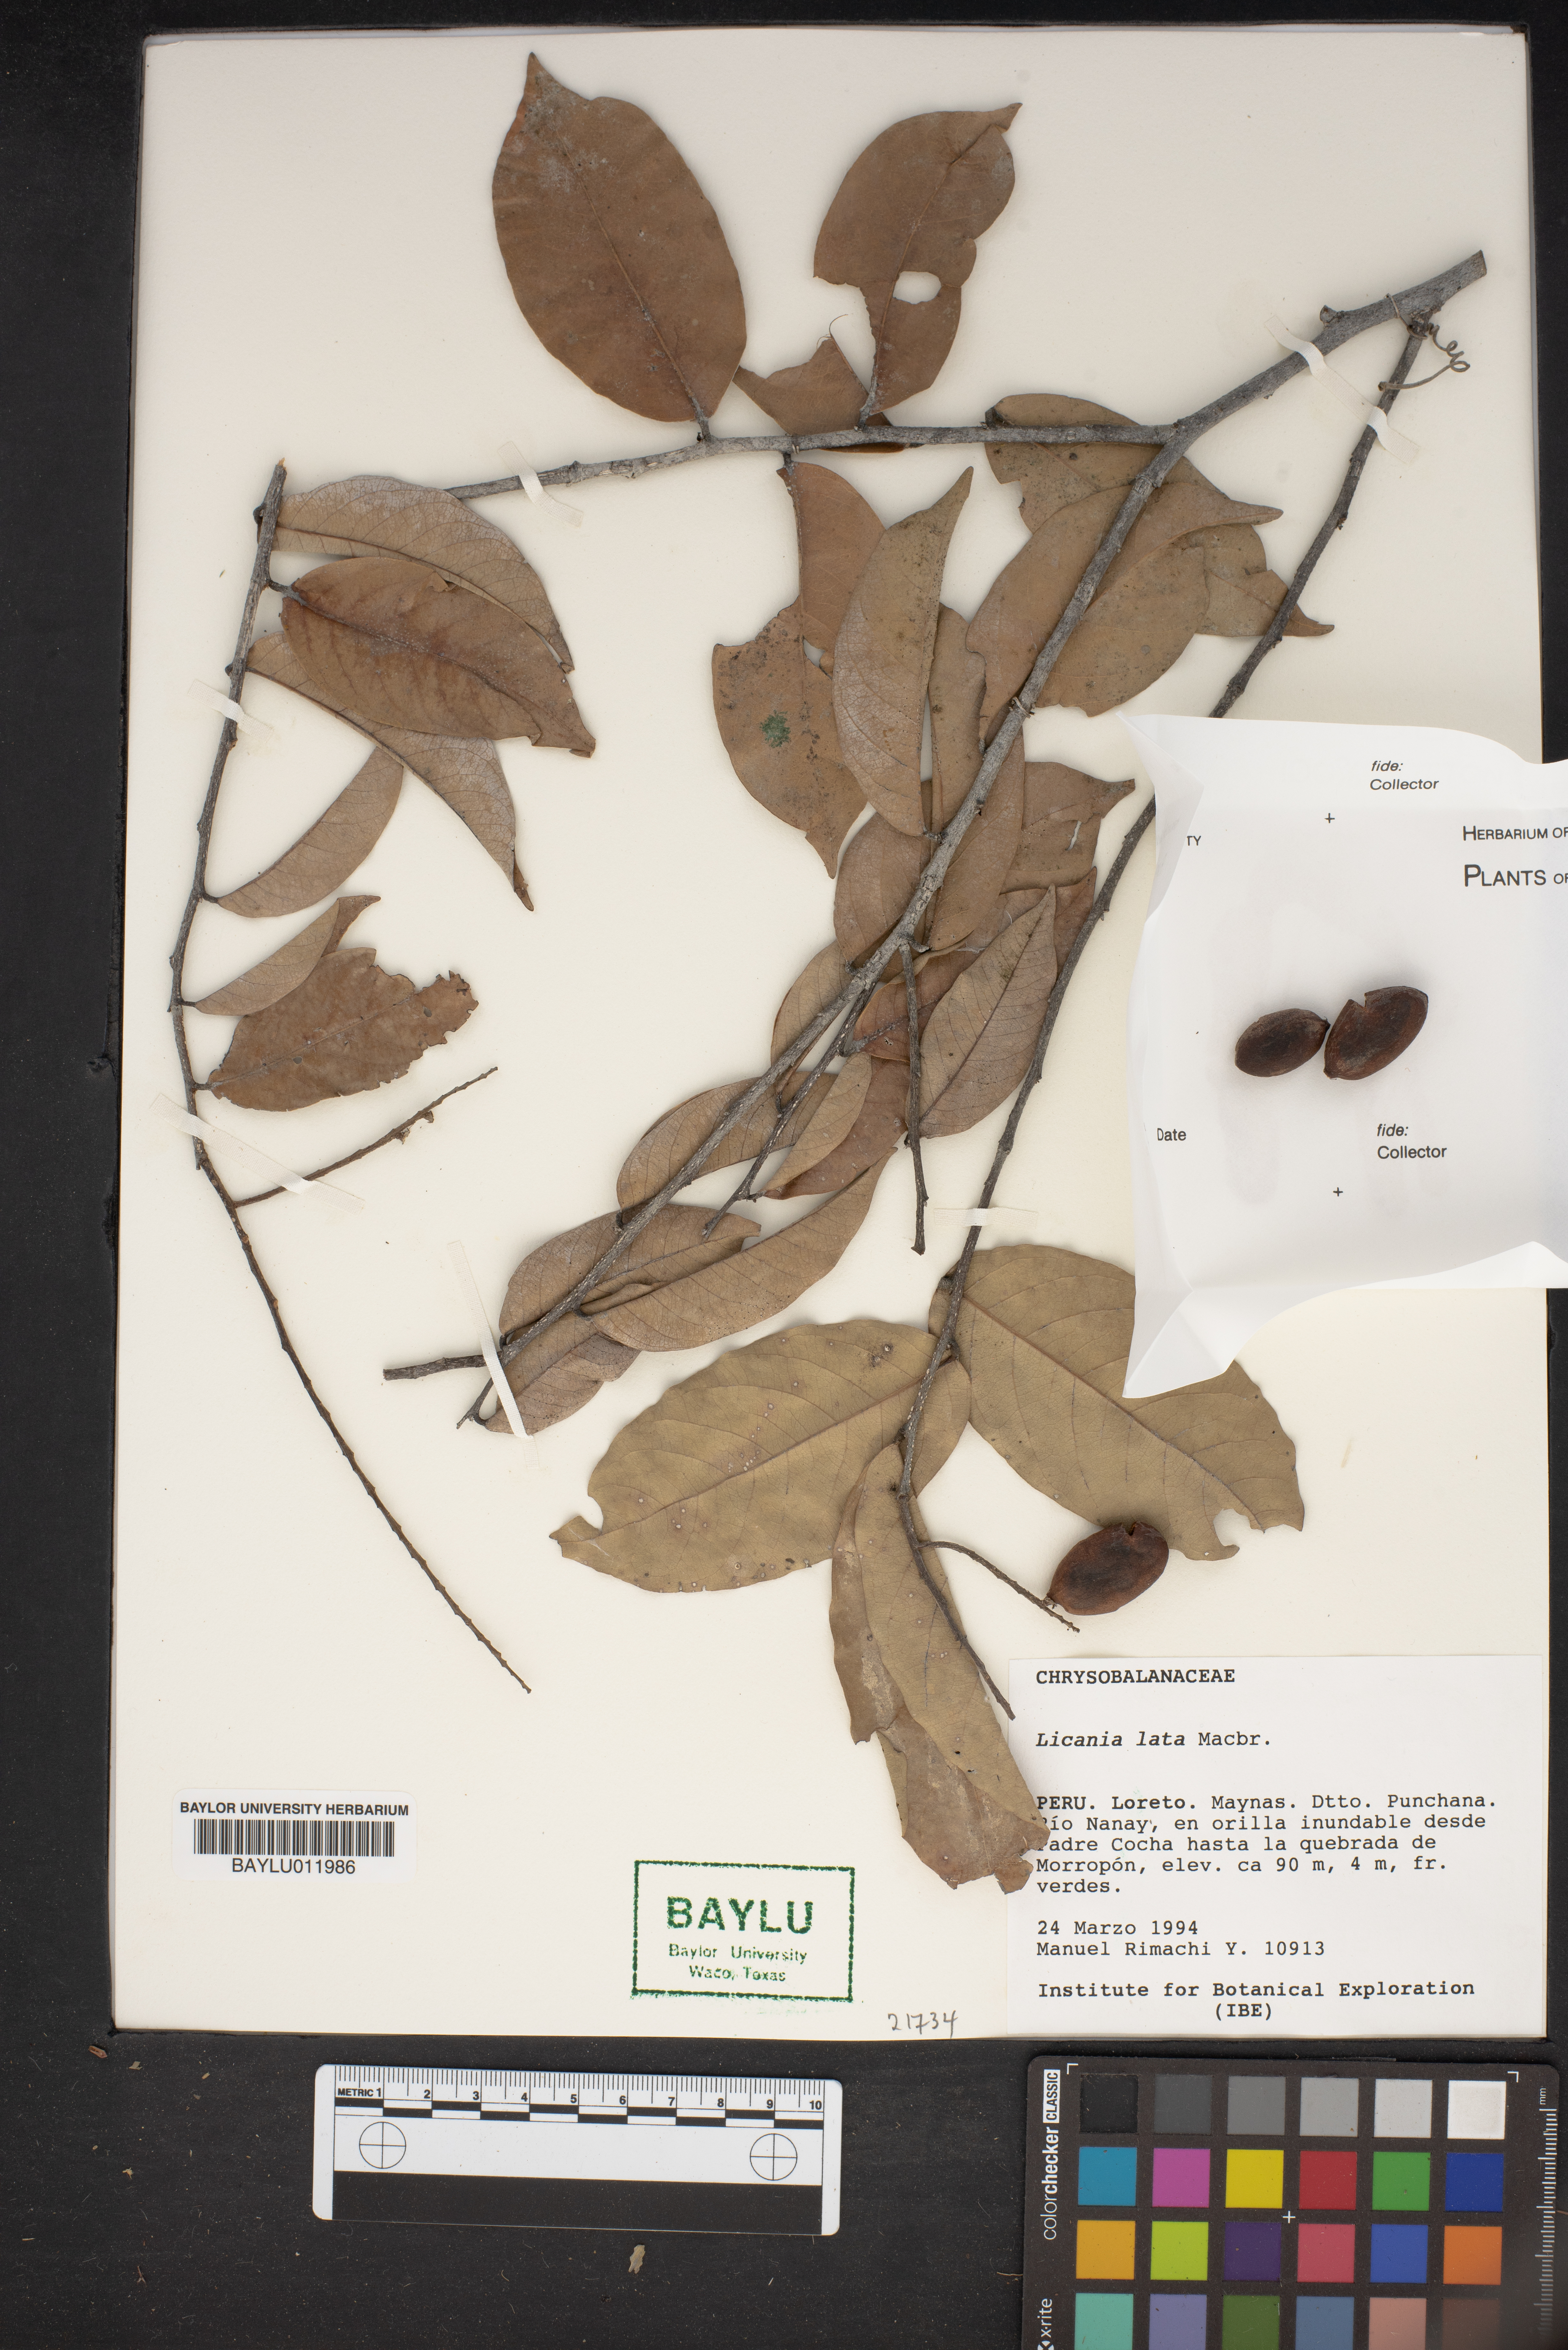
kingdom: Plantae
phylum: Tracheophyta
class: Magnoliopsida
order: Malpighiales
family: Chrysobalanaceae
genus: Leptobalanus
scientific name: Leptobalanus latus
